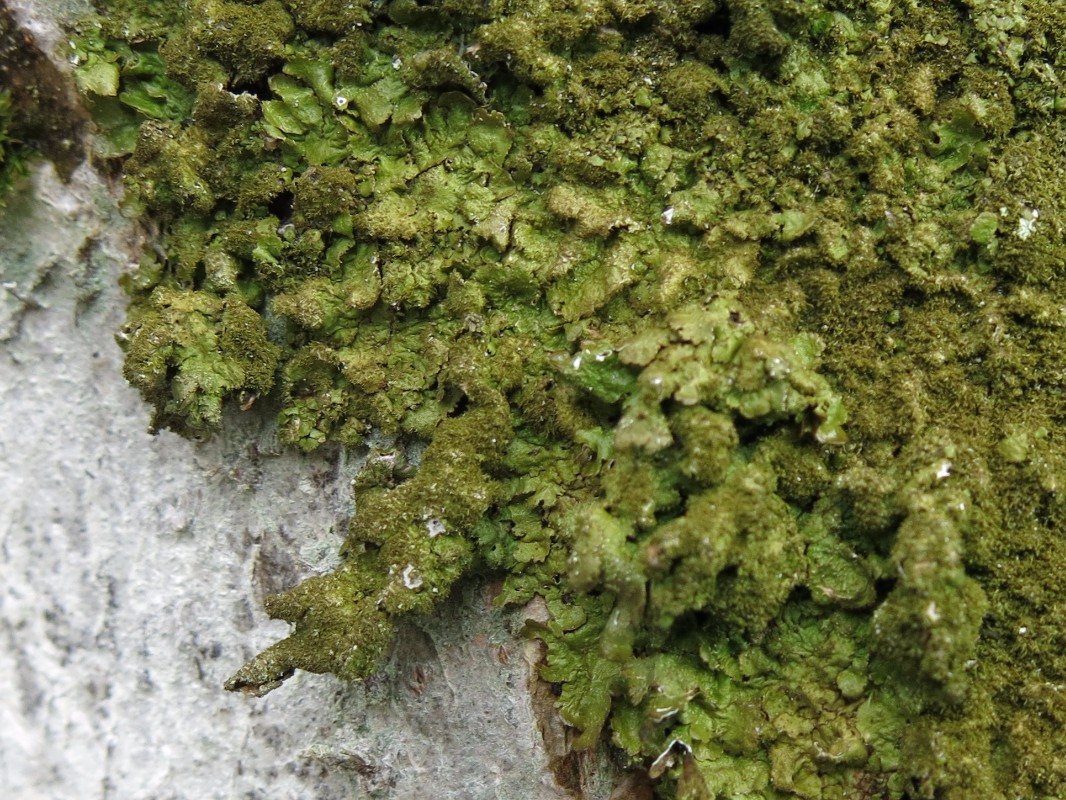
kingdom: Fungi
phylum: Ascomycota
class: Lecanoromycetes
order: Lecanorales
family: Parmeliaceae
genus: Melanelixia
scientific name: Melanelixia glabratula
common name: glinsende skållav
